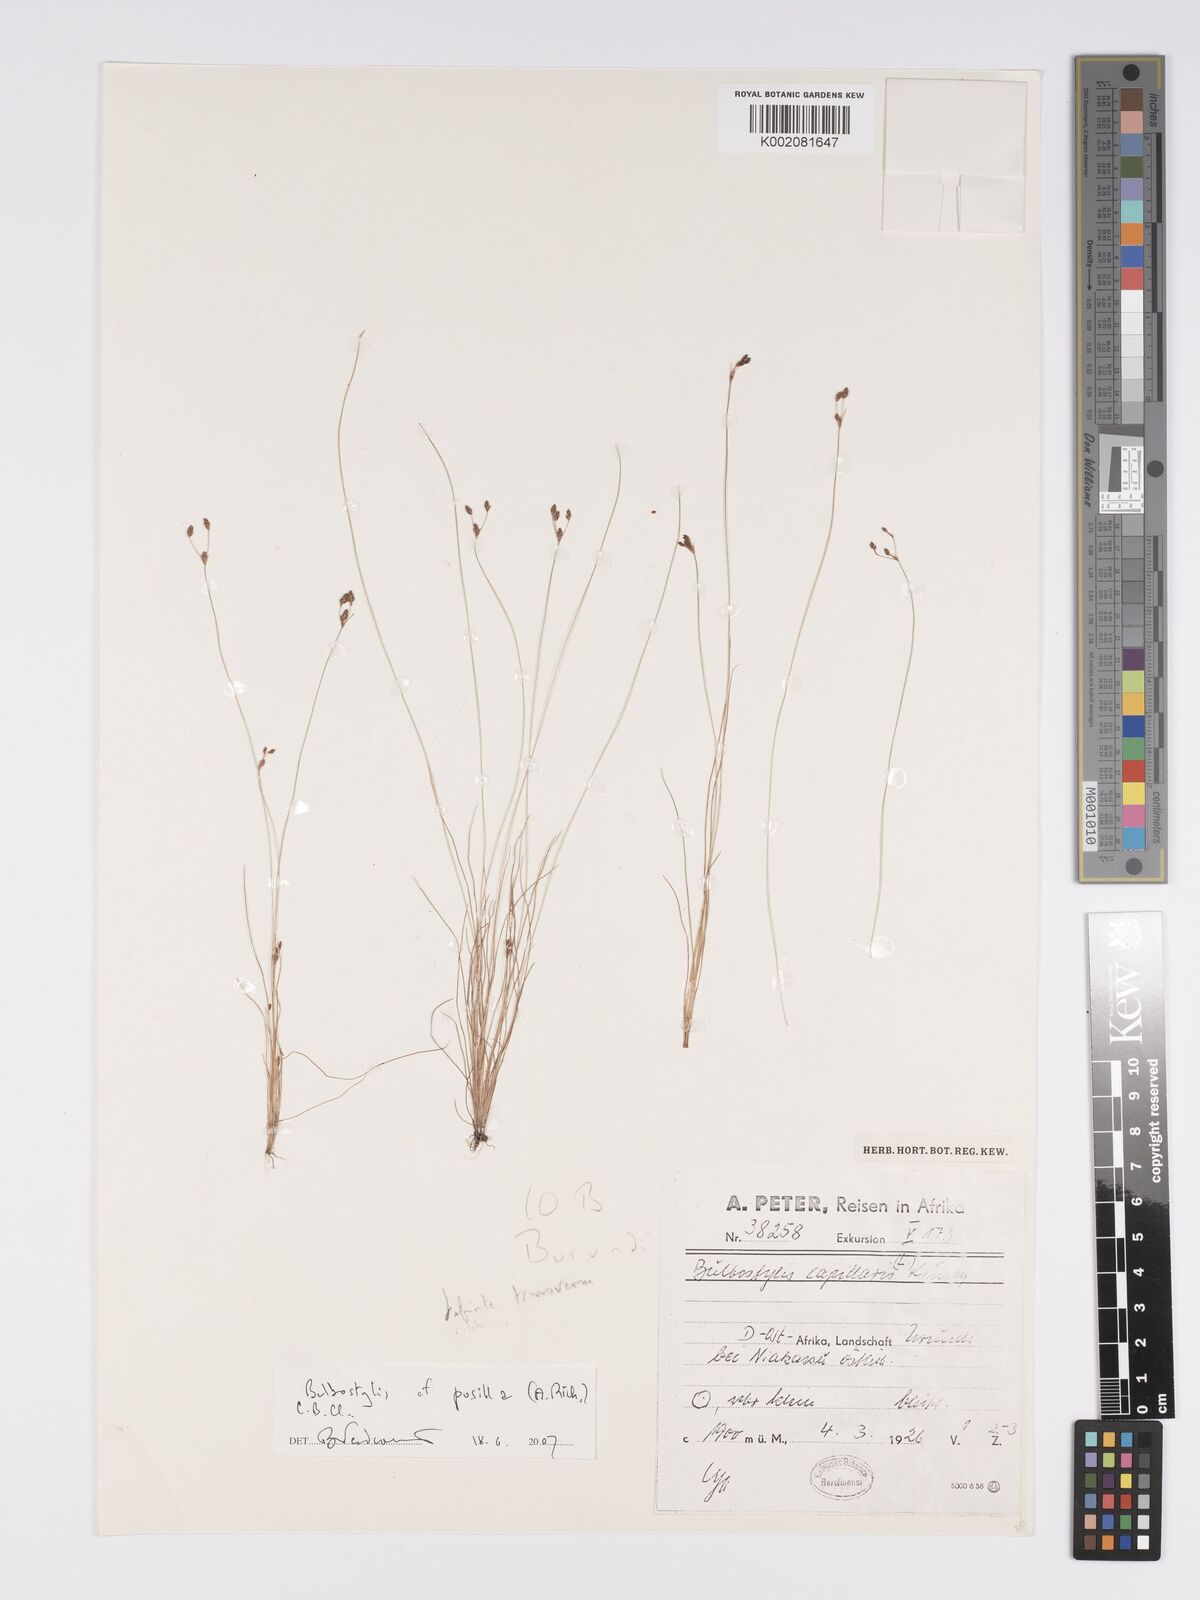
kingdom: Plantae
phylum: Tracheophyta
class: Liliopsida
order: Poales
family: Cyperaceae
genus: Bulbostylis
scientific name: Bulbostylis pusilla
